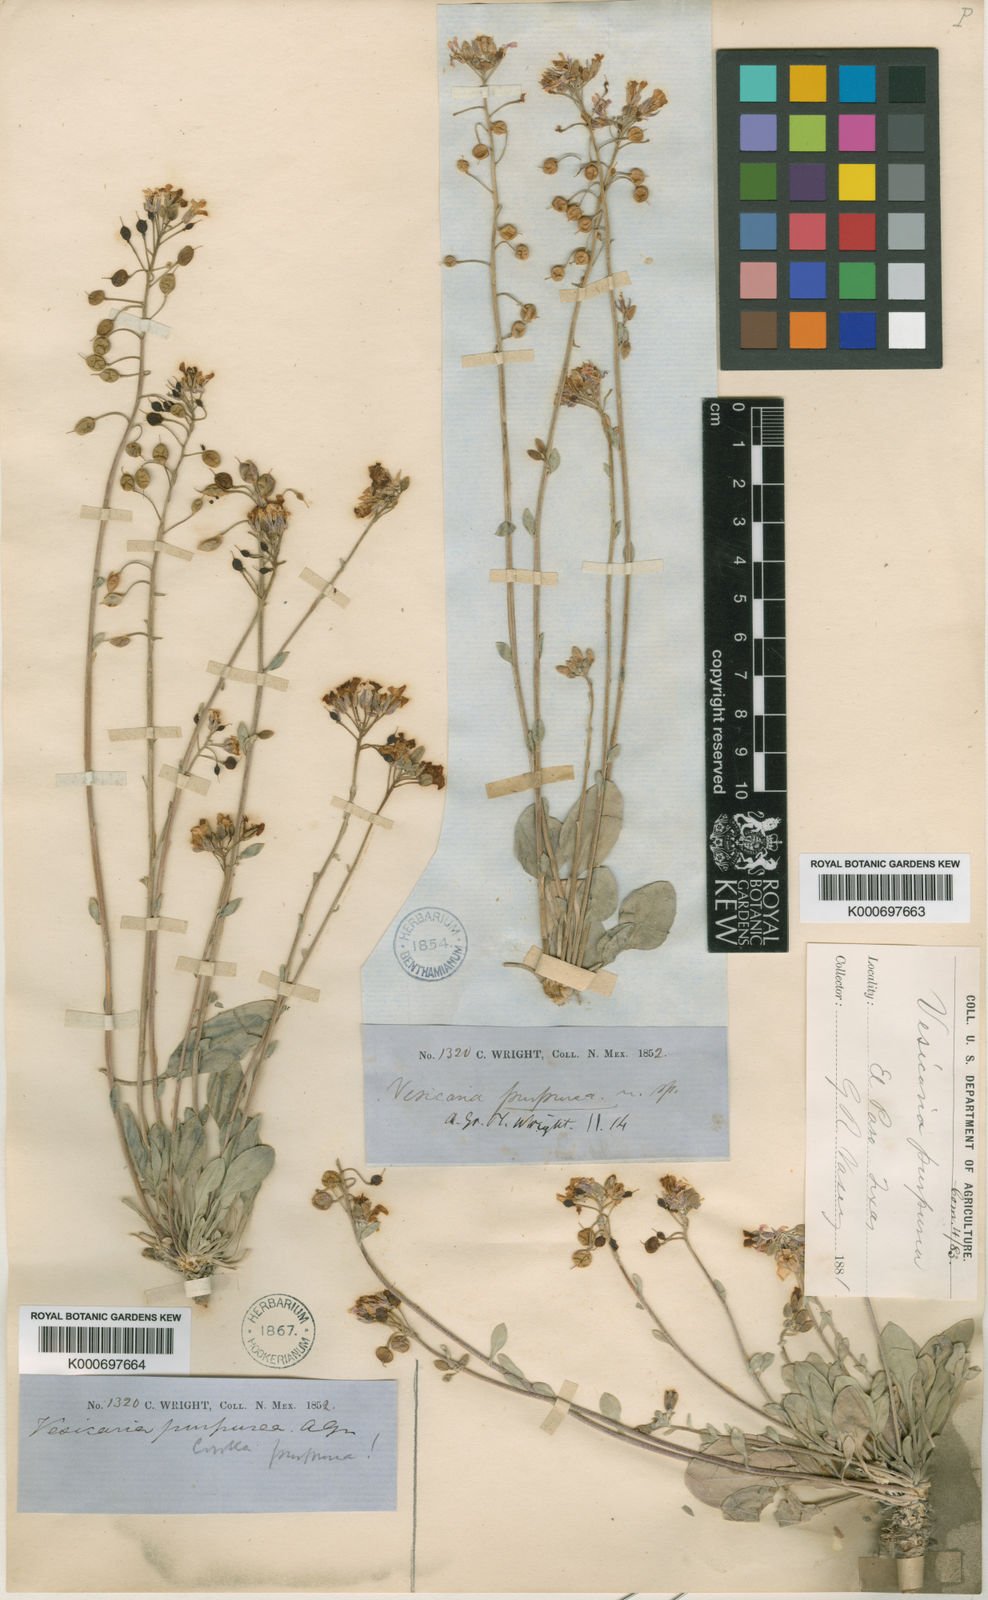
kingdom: Plantae
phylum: Tracheophyta
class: Magnoliopsida
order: Brassicales
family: Brassicaceae
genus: Physaria
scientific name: Physaria purpurea
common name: Rose bladderpod
